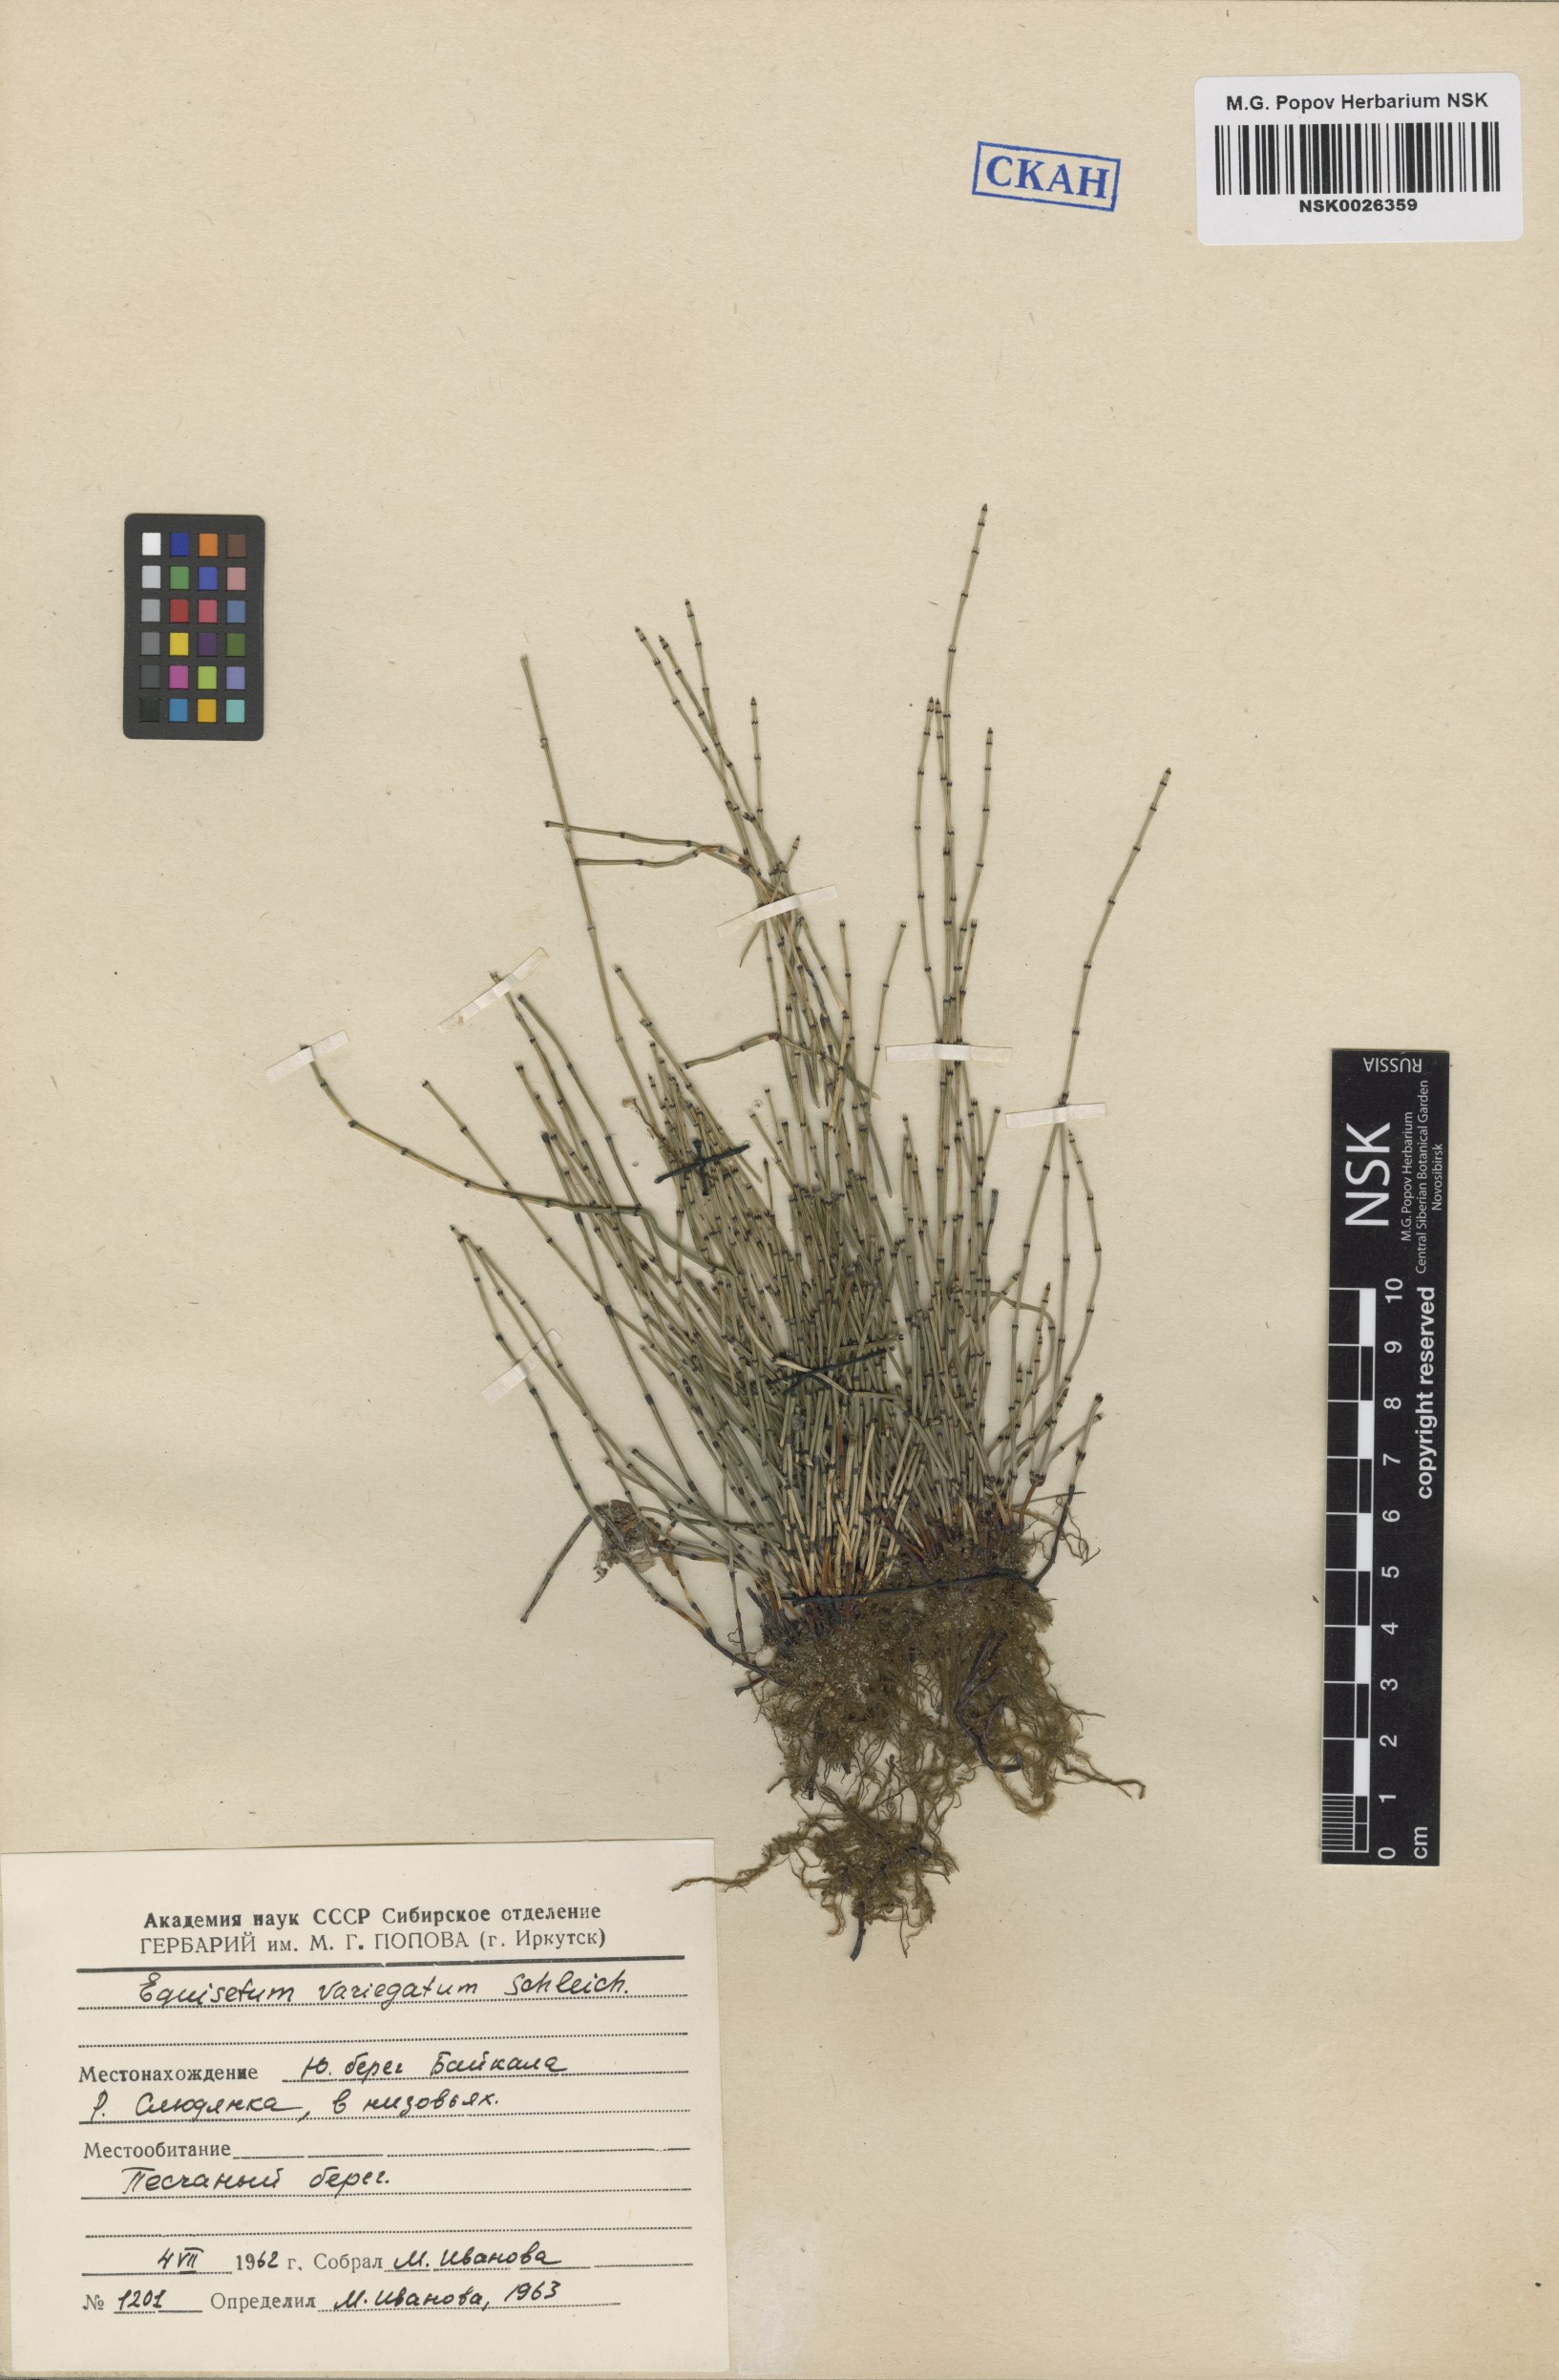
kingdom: Plantae
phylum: Tracheophyta
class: Polypodiopsida
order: Equisetales
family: Equisetaceae
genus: Equisetum
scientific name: Equisetum variegatum
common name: Variegated horsetail
